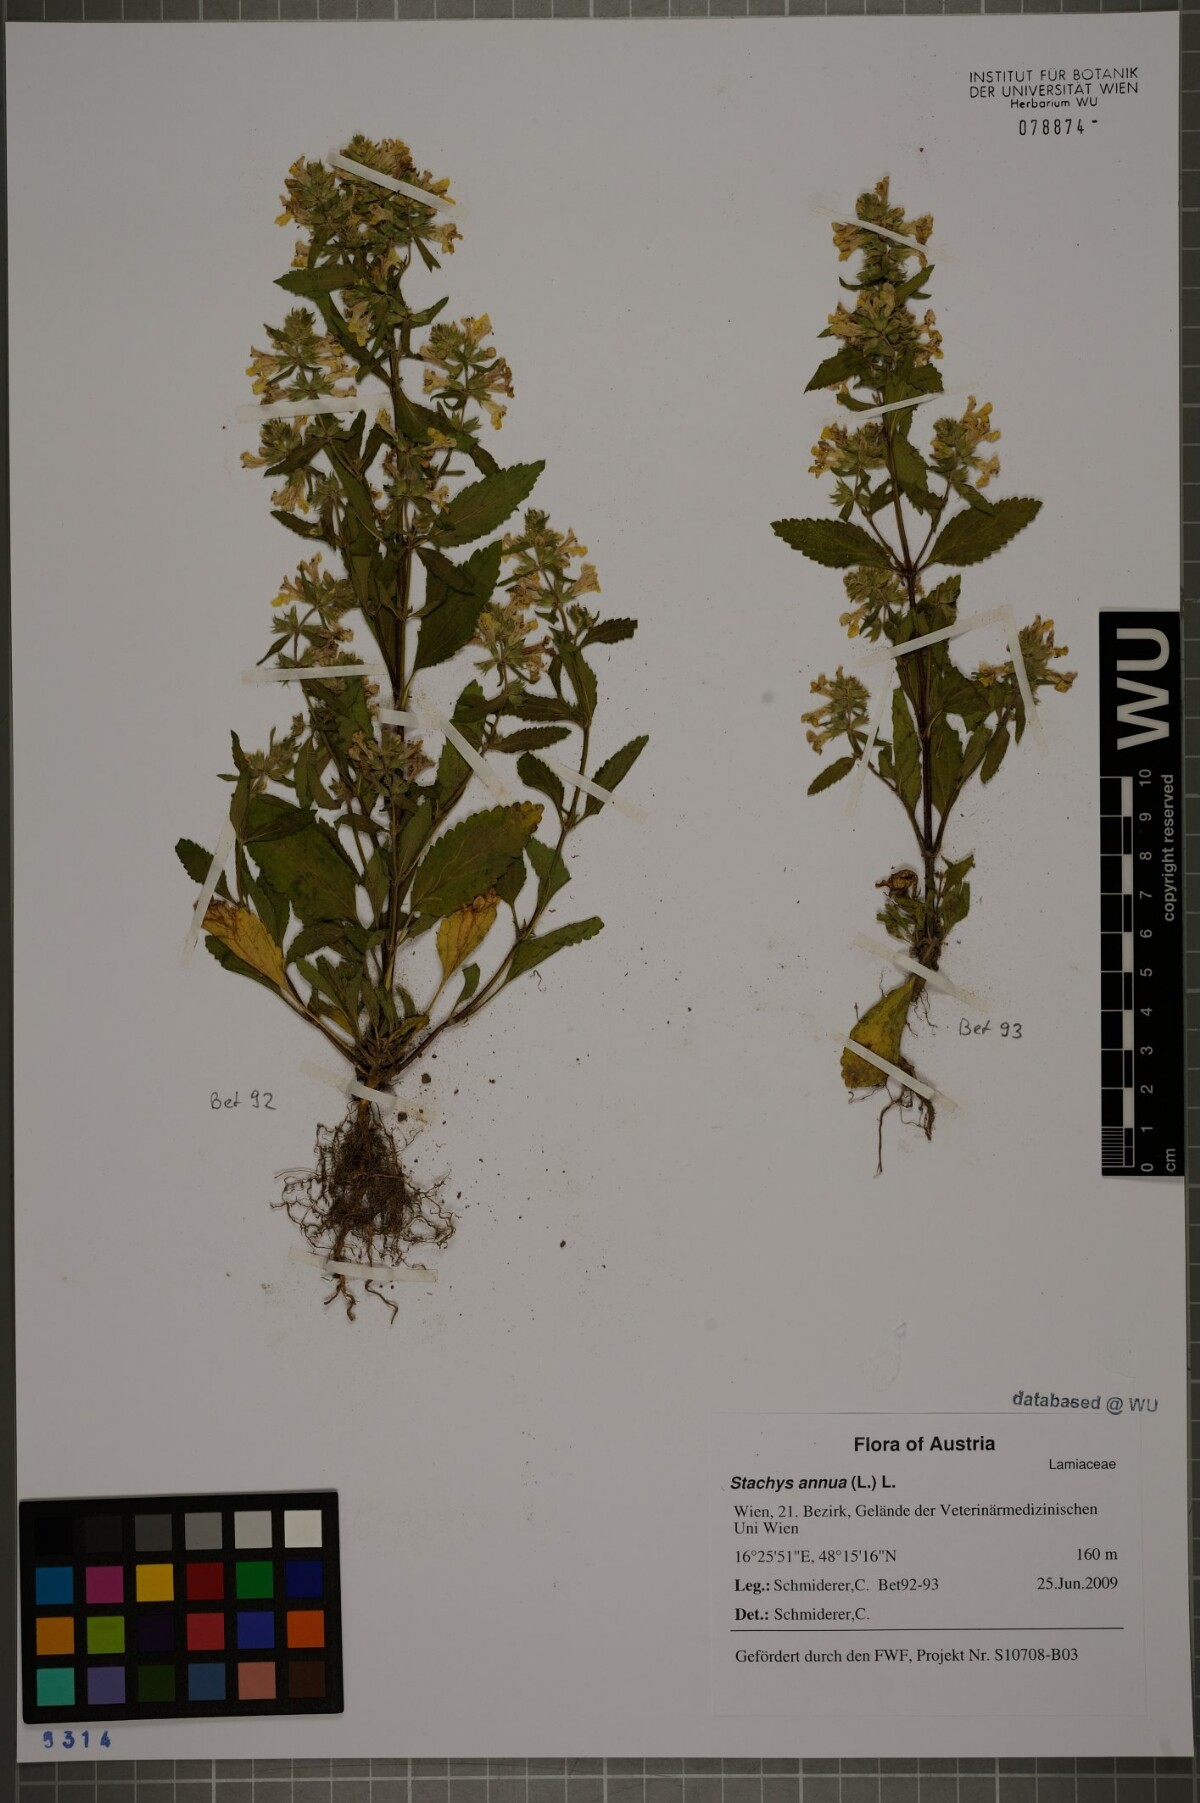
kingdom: Plantae
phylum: Tracheophyta
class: Magnoliopsida
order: Lamiales
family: Lamiaceae
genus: Stachys
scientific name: Stachys annua
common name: Annual yellow-woundwort
